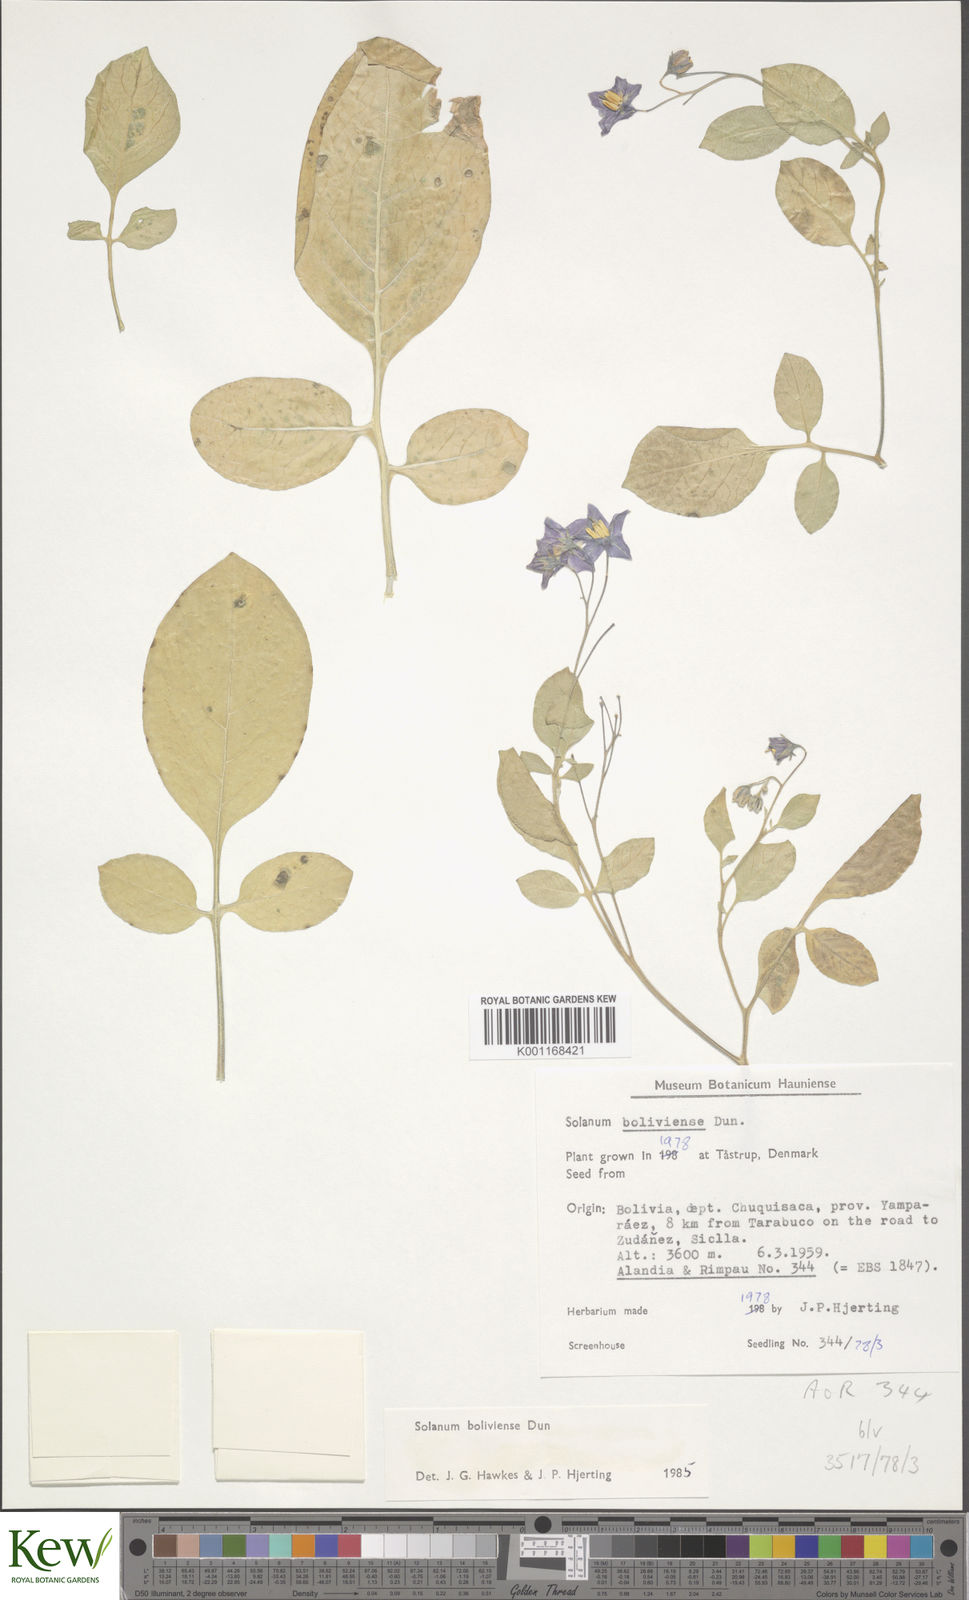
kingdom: Plantae
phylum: Tracheophyta
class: Magnoliopsida
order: Solanales
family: Solanaceae
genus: Solanum
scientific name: Solanum boliviense
